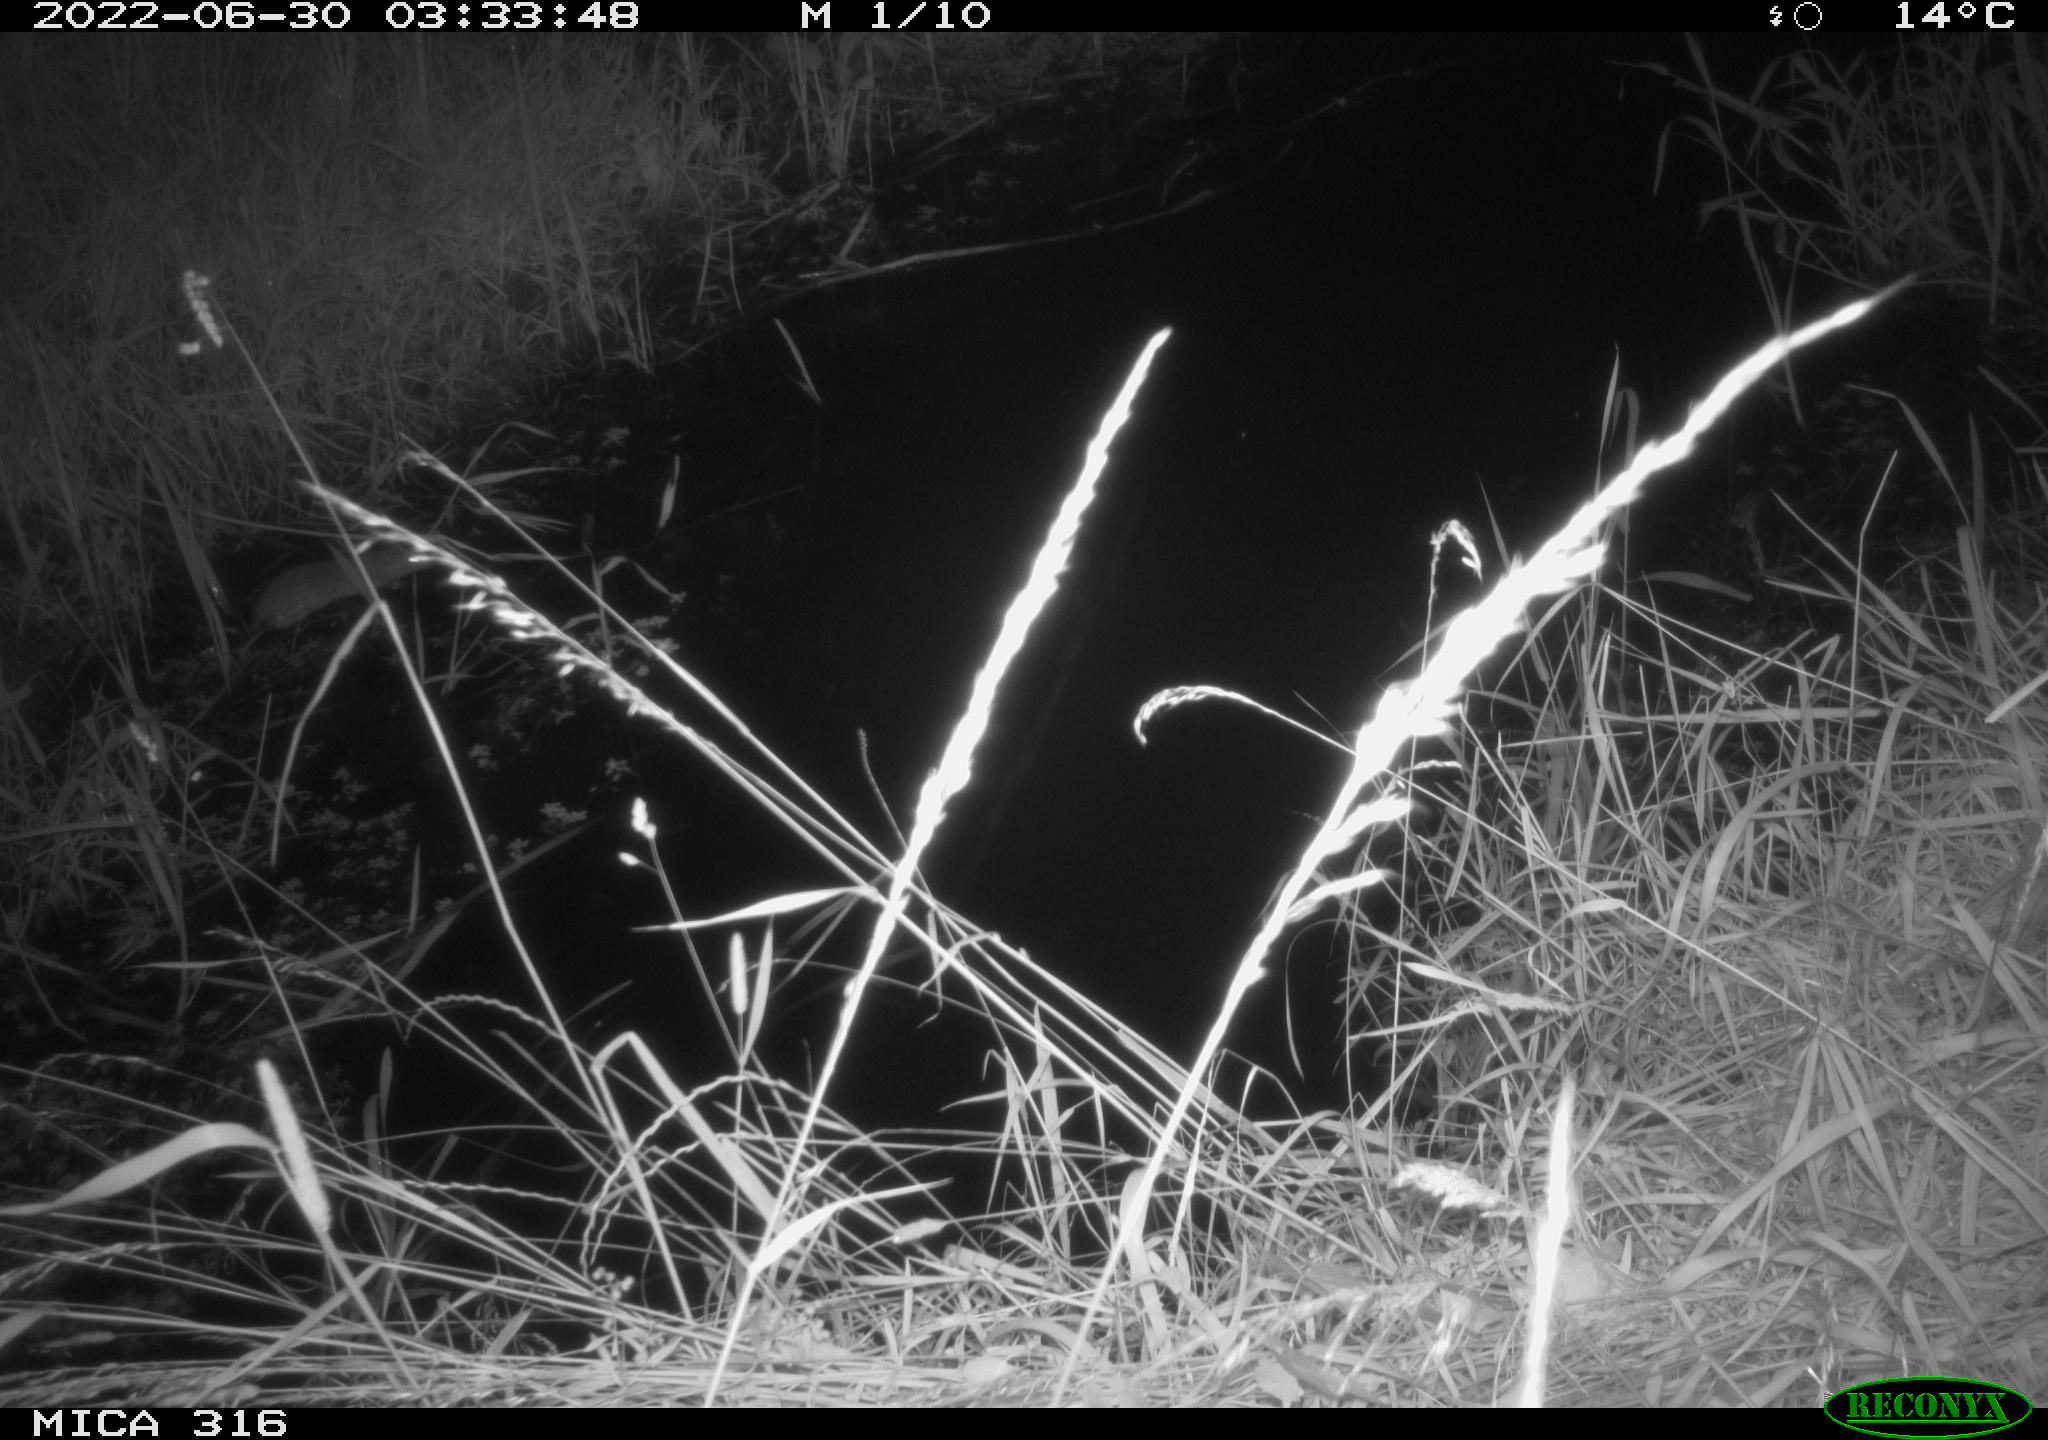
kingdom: Animalia
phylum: Chordata
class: Mammalia
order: Rodentia
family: Muridae
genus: Rattus
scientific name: Rattus norvegicus
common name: Brown rat
